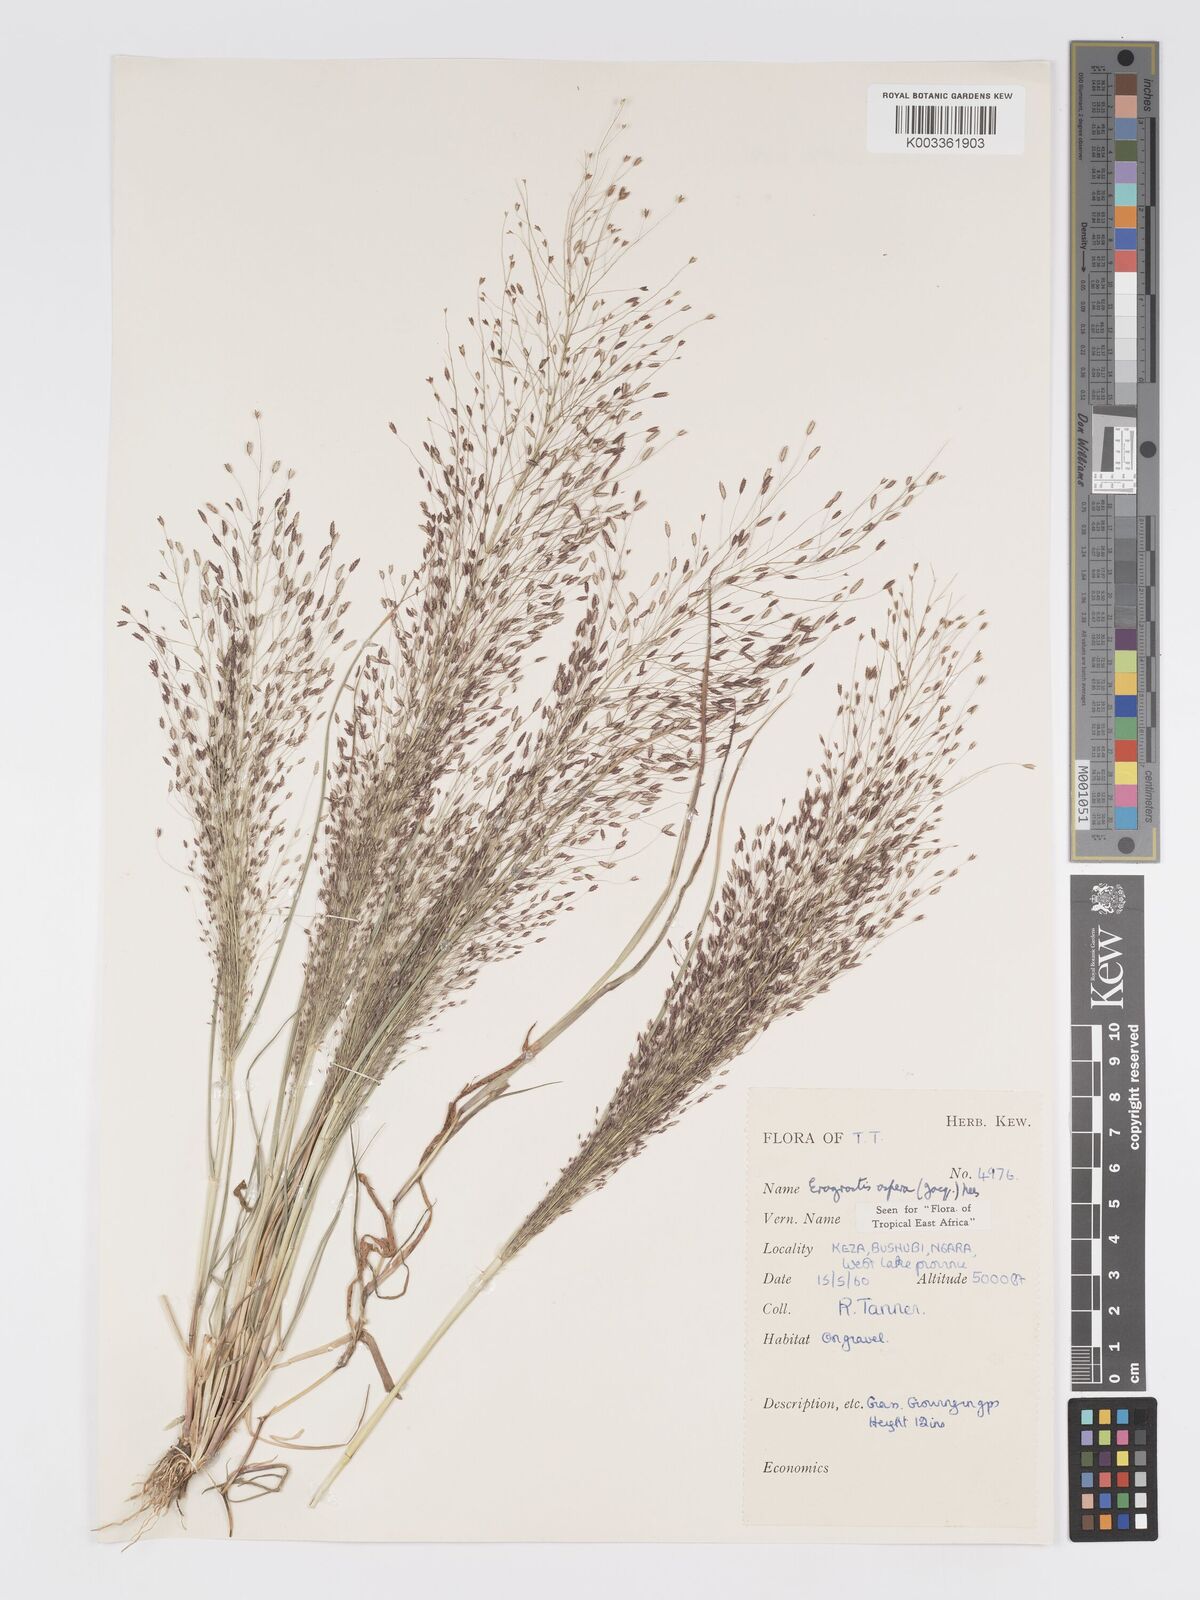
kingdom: Plantae
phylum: Tracheophyta
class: Liliopsida
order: Poales
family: Poaceae
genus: Eragrostis
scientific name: Eragrostis aspera
